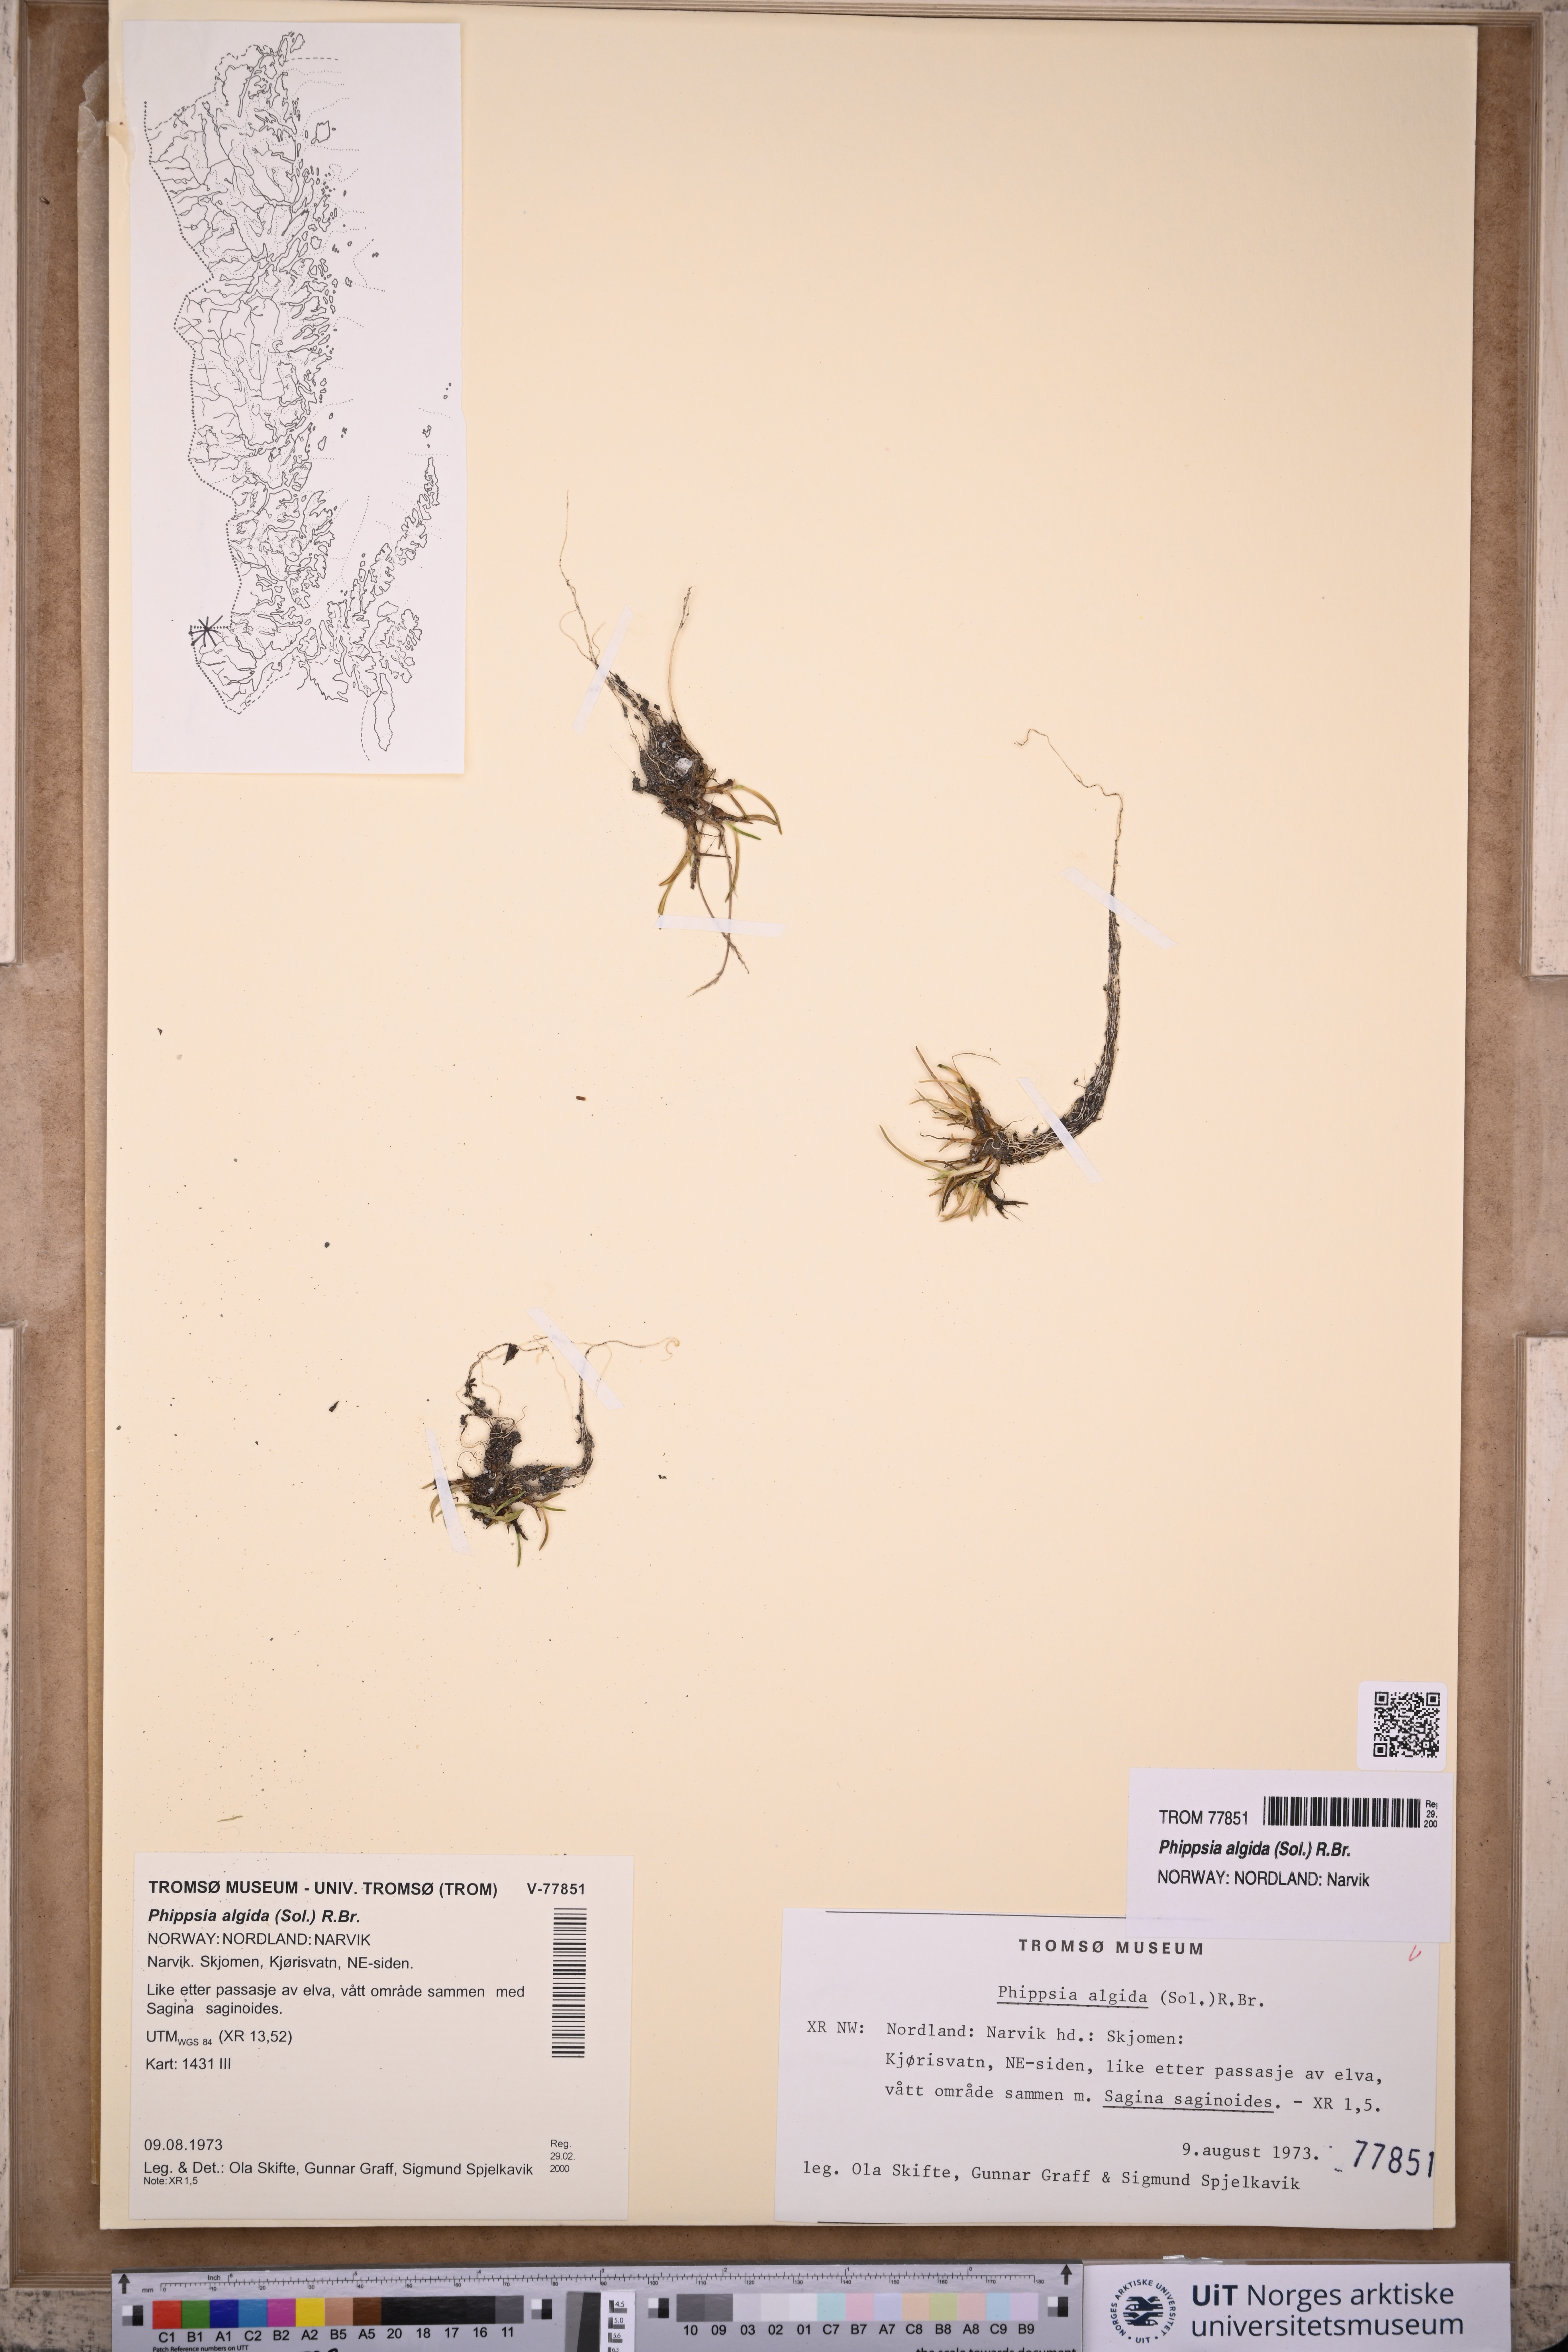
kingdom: Plantae
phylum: Tracheophyta
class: Liliopsida
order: Poales
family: Poaceae
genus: Phippsia
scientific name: Phippsia algida
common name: Ice grass
